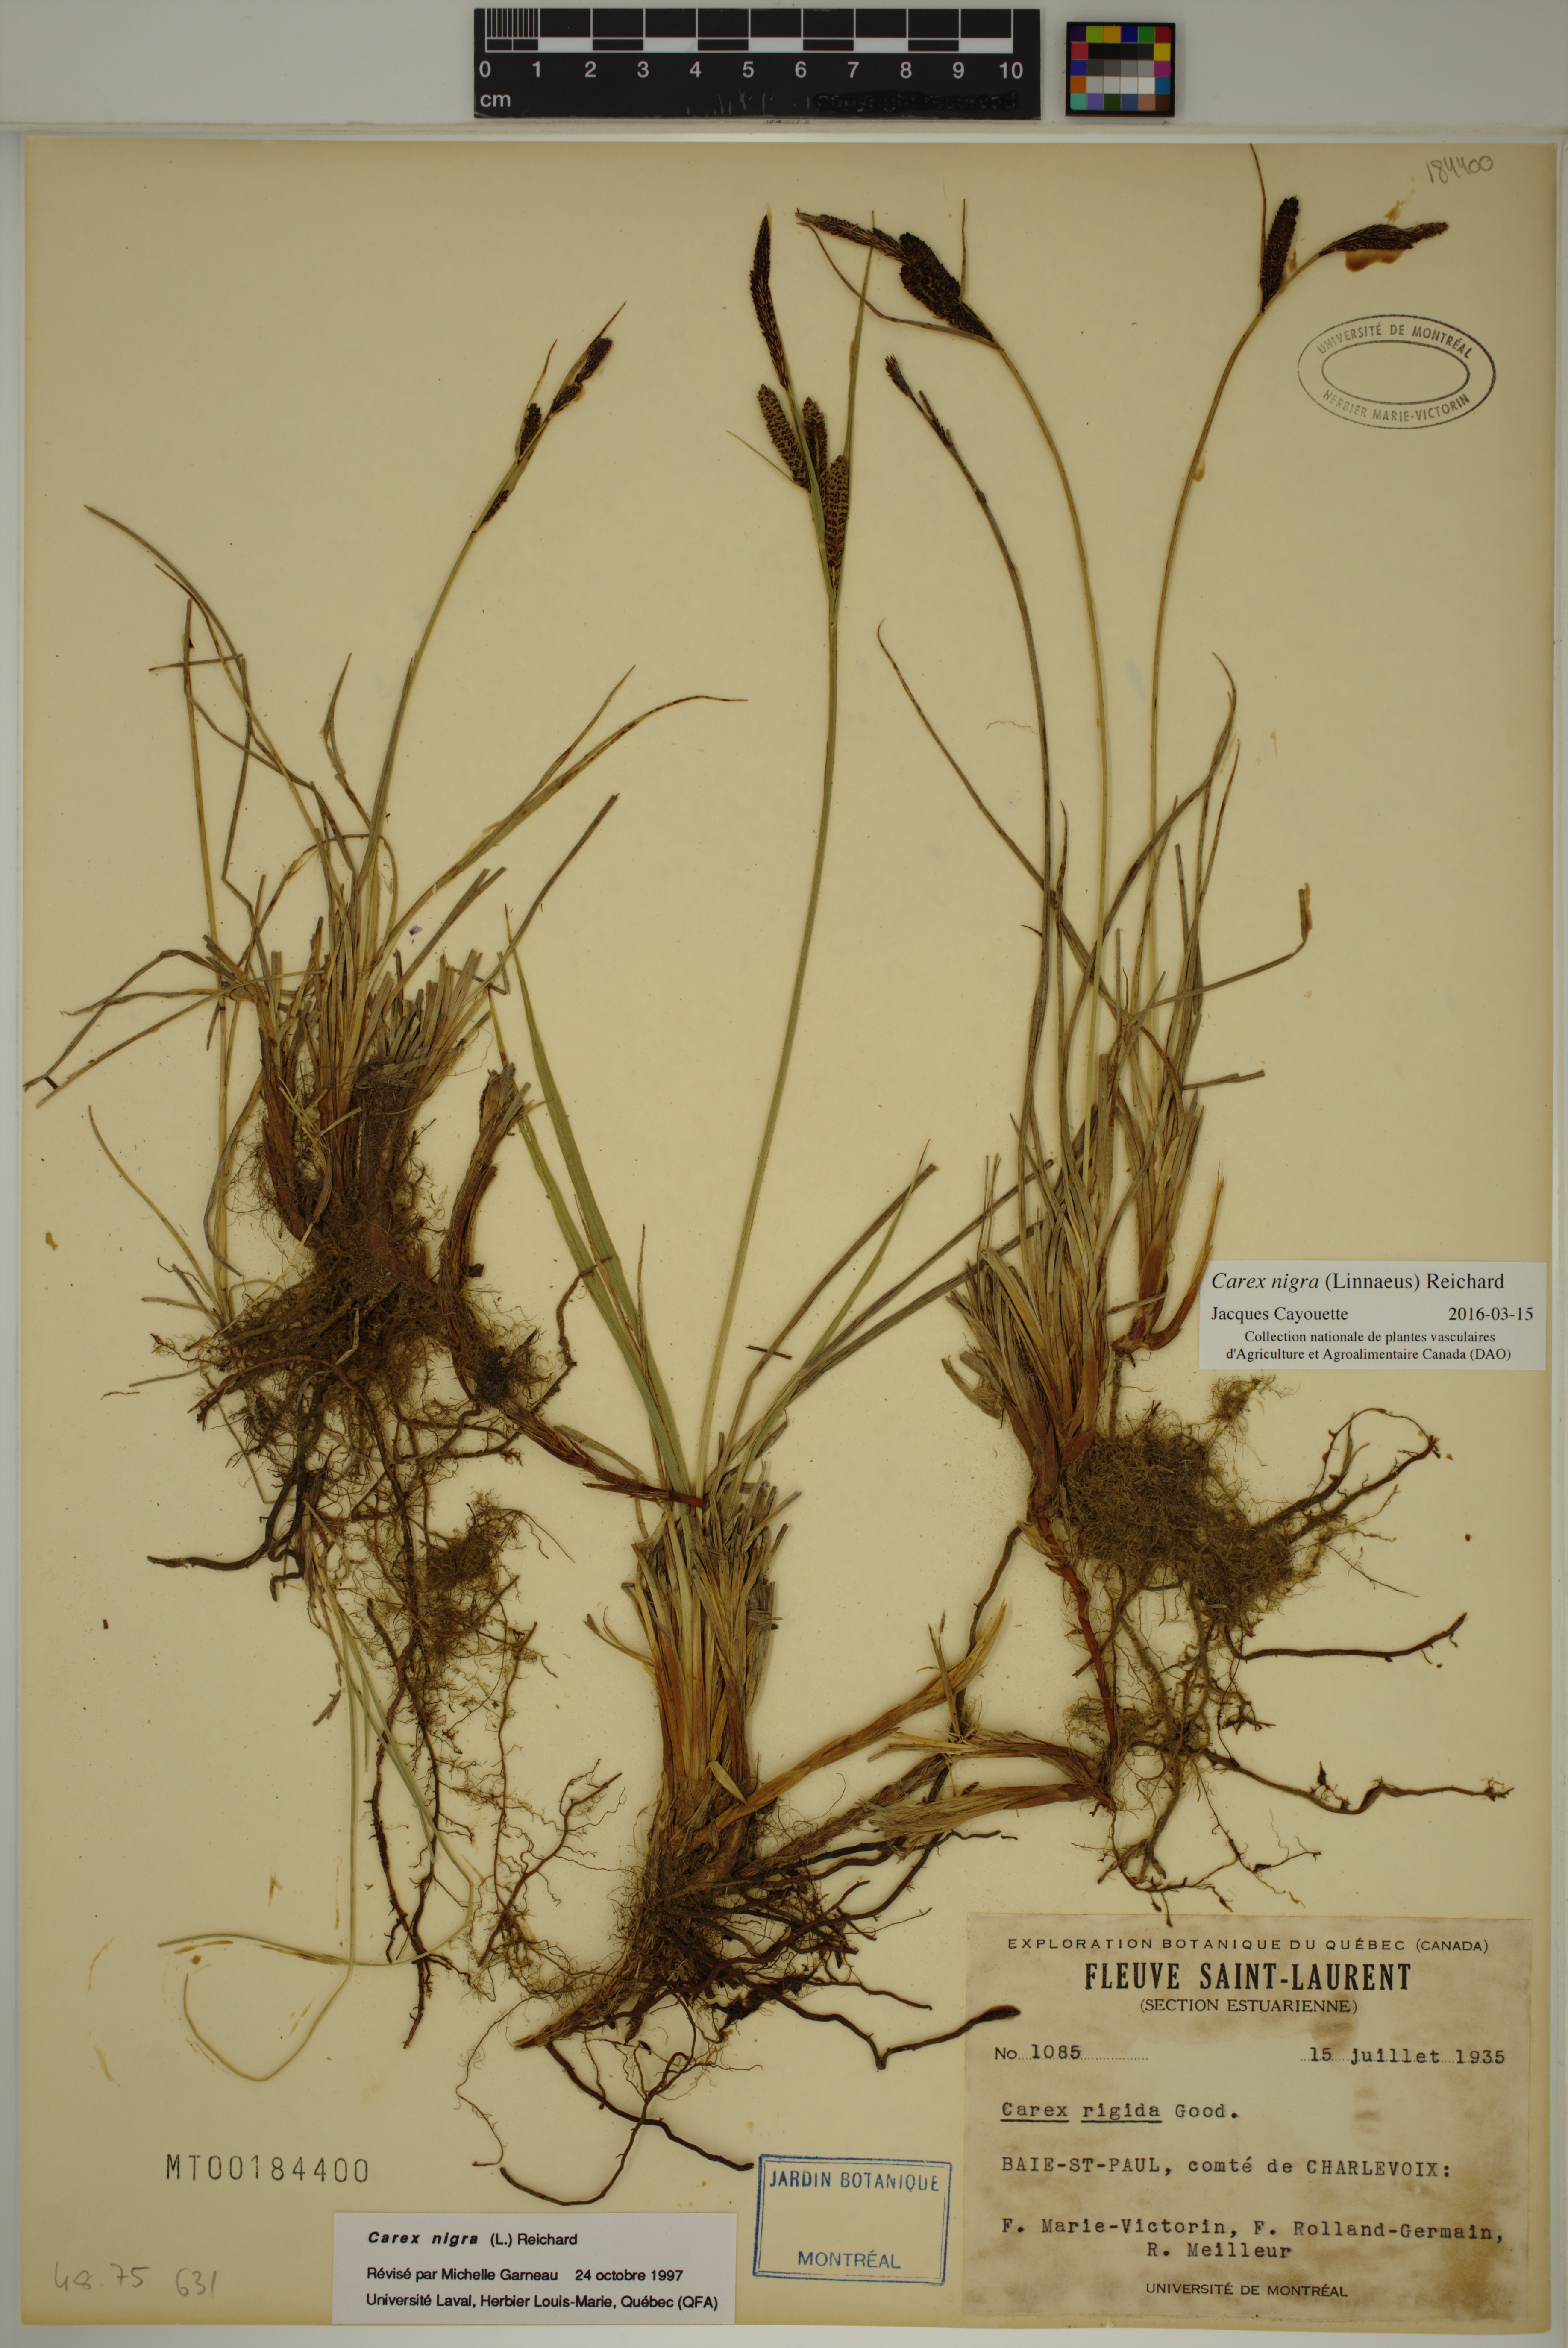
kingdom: Plantae
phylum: Tracheophyta
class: Liliopsida
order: Poales
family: Cyperaceae
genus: Carex
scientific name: Carex nigra
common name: Common sedge
